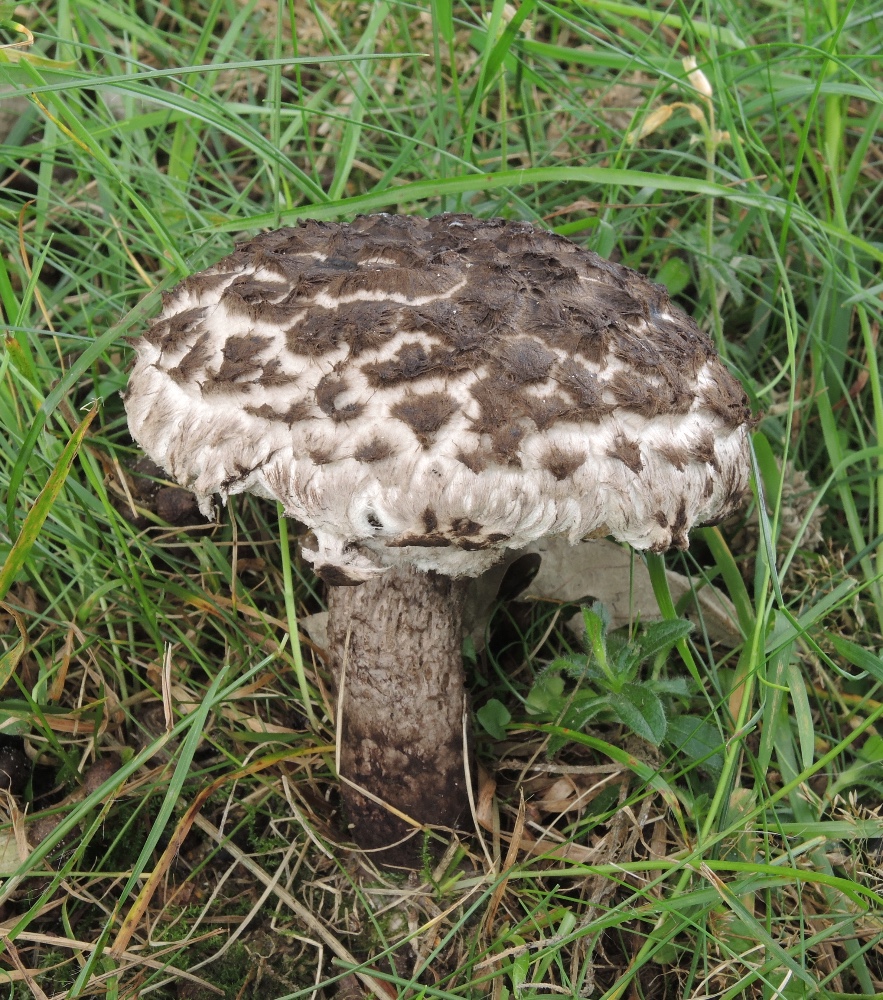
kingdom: Fungi
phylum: Basidiomycota
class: Agaricomycetes
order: Boletales
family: Boletaceae
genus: Strobilomyces
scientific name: Strobilomyces strobilaceus
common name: koglerørhat
